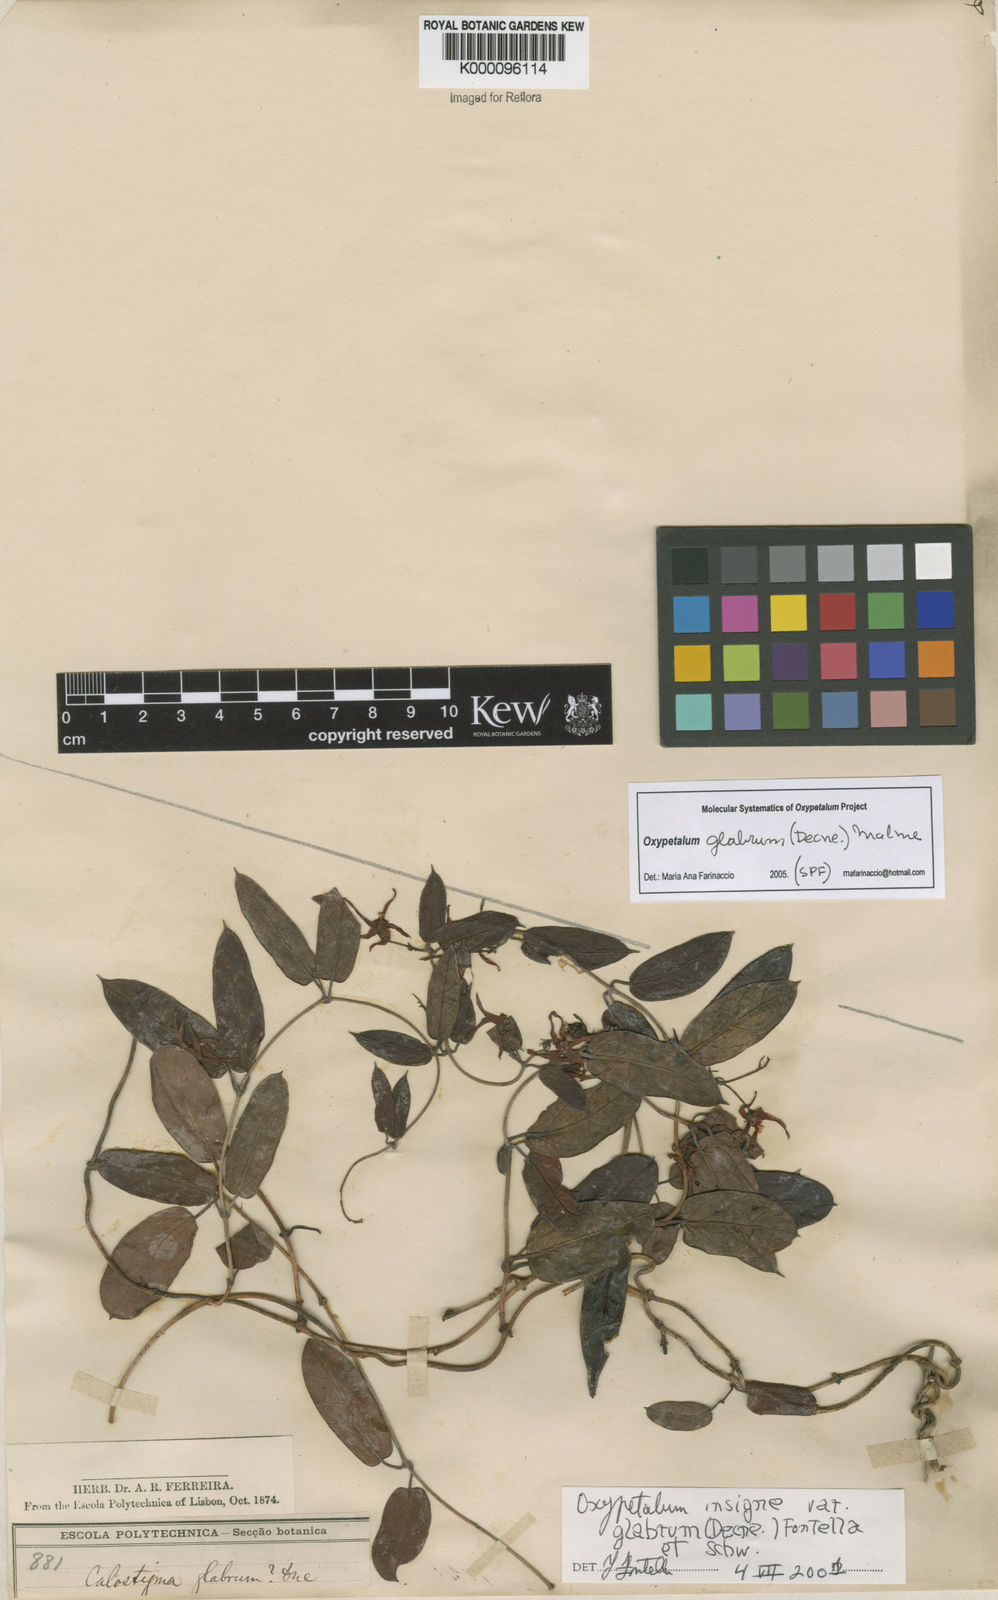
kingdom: Plantae
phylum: Tracheophyta
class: Magnoliopsida
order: Gentianales
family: Apocynaceae
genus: Oxypetalum
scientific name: Oxypetalum insigne
